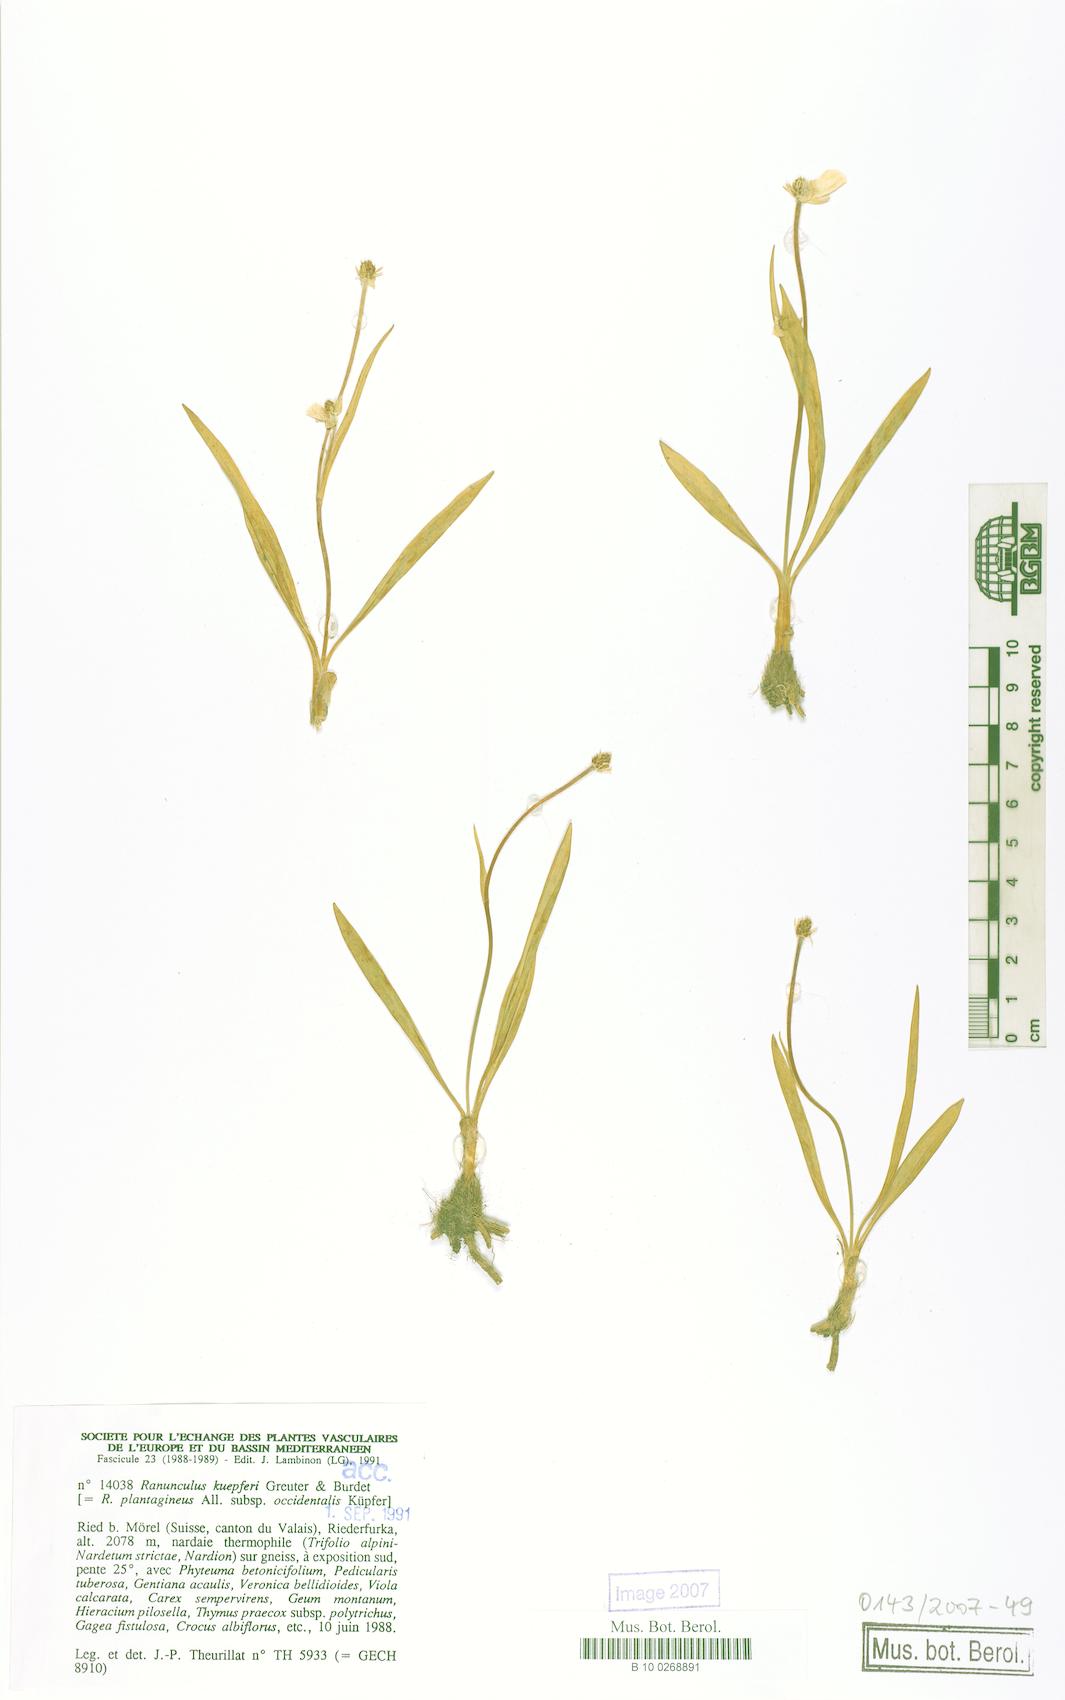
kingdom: Plantae
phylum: Tracheophyta
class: Magnoliopsida
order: Ranunculales
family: Ranunculaceae
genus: Ranunculus
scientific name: Ranunculus kuepferi
